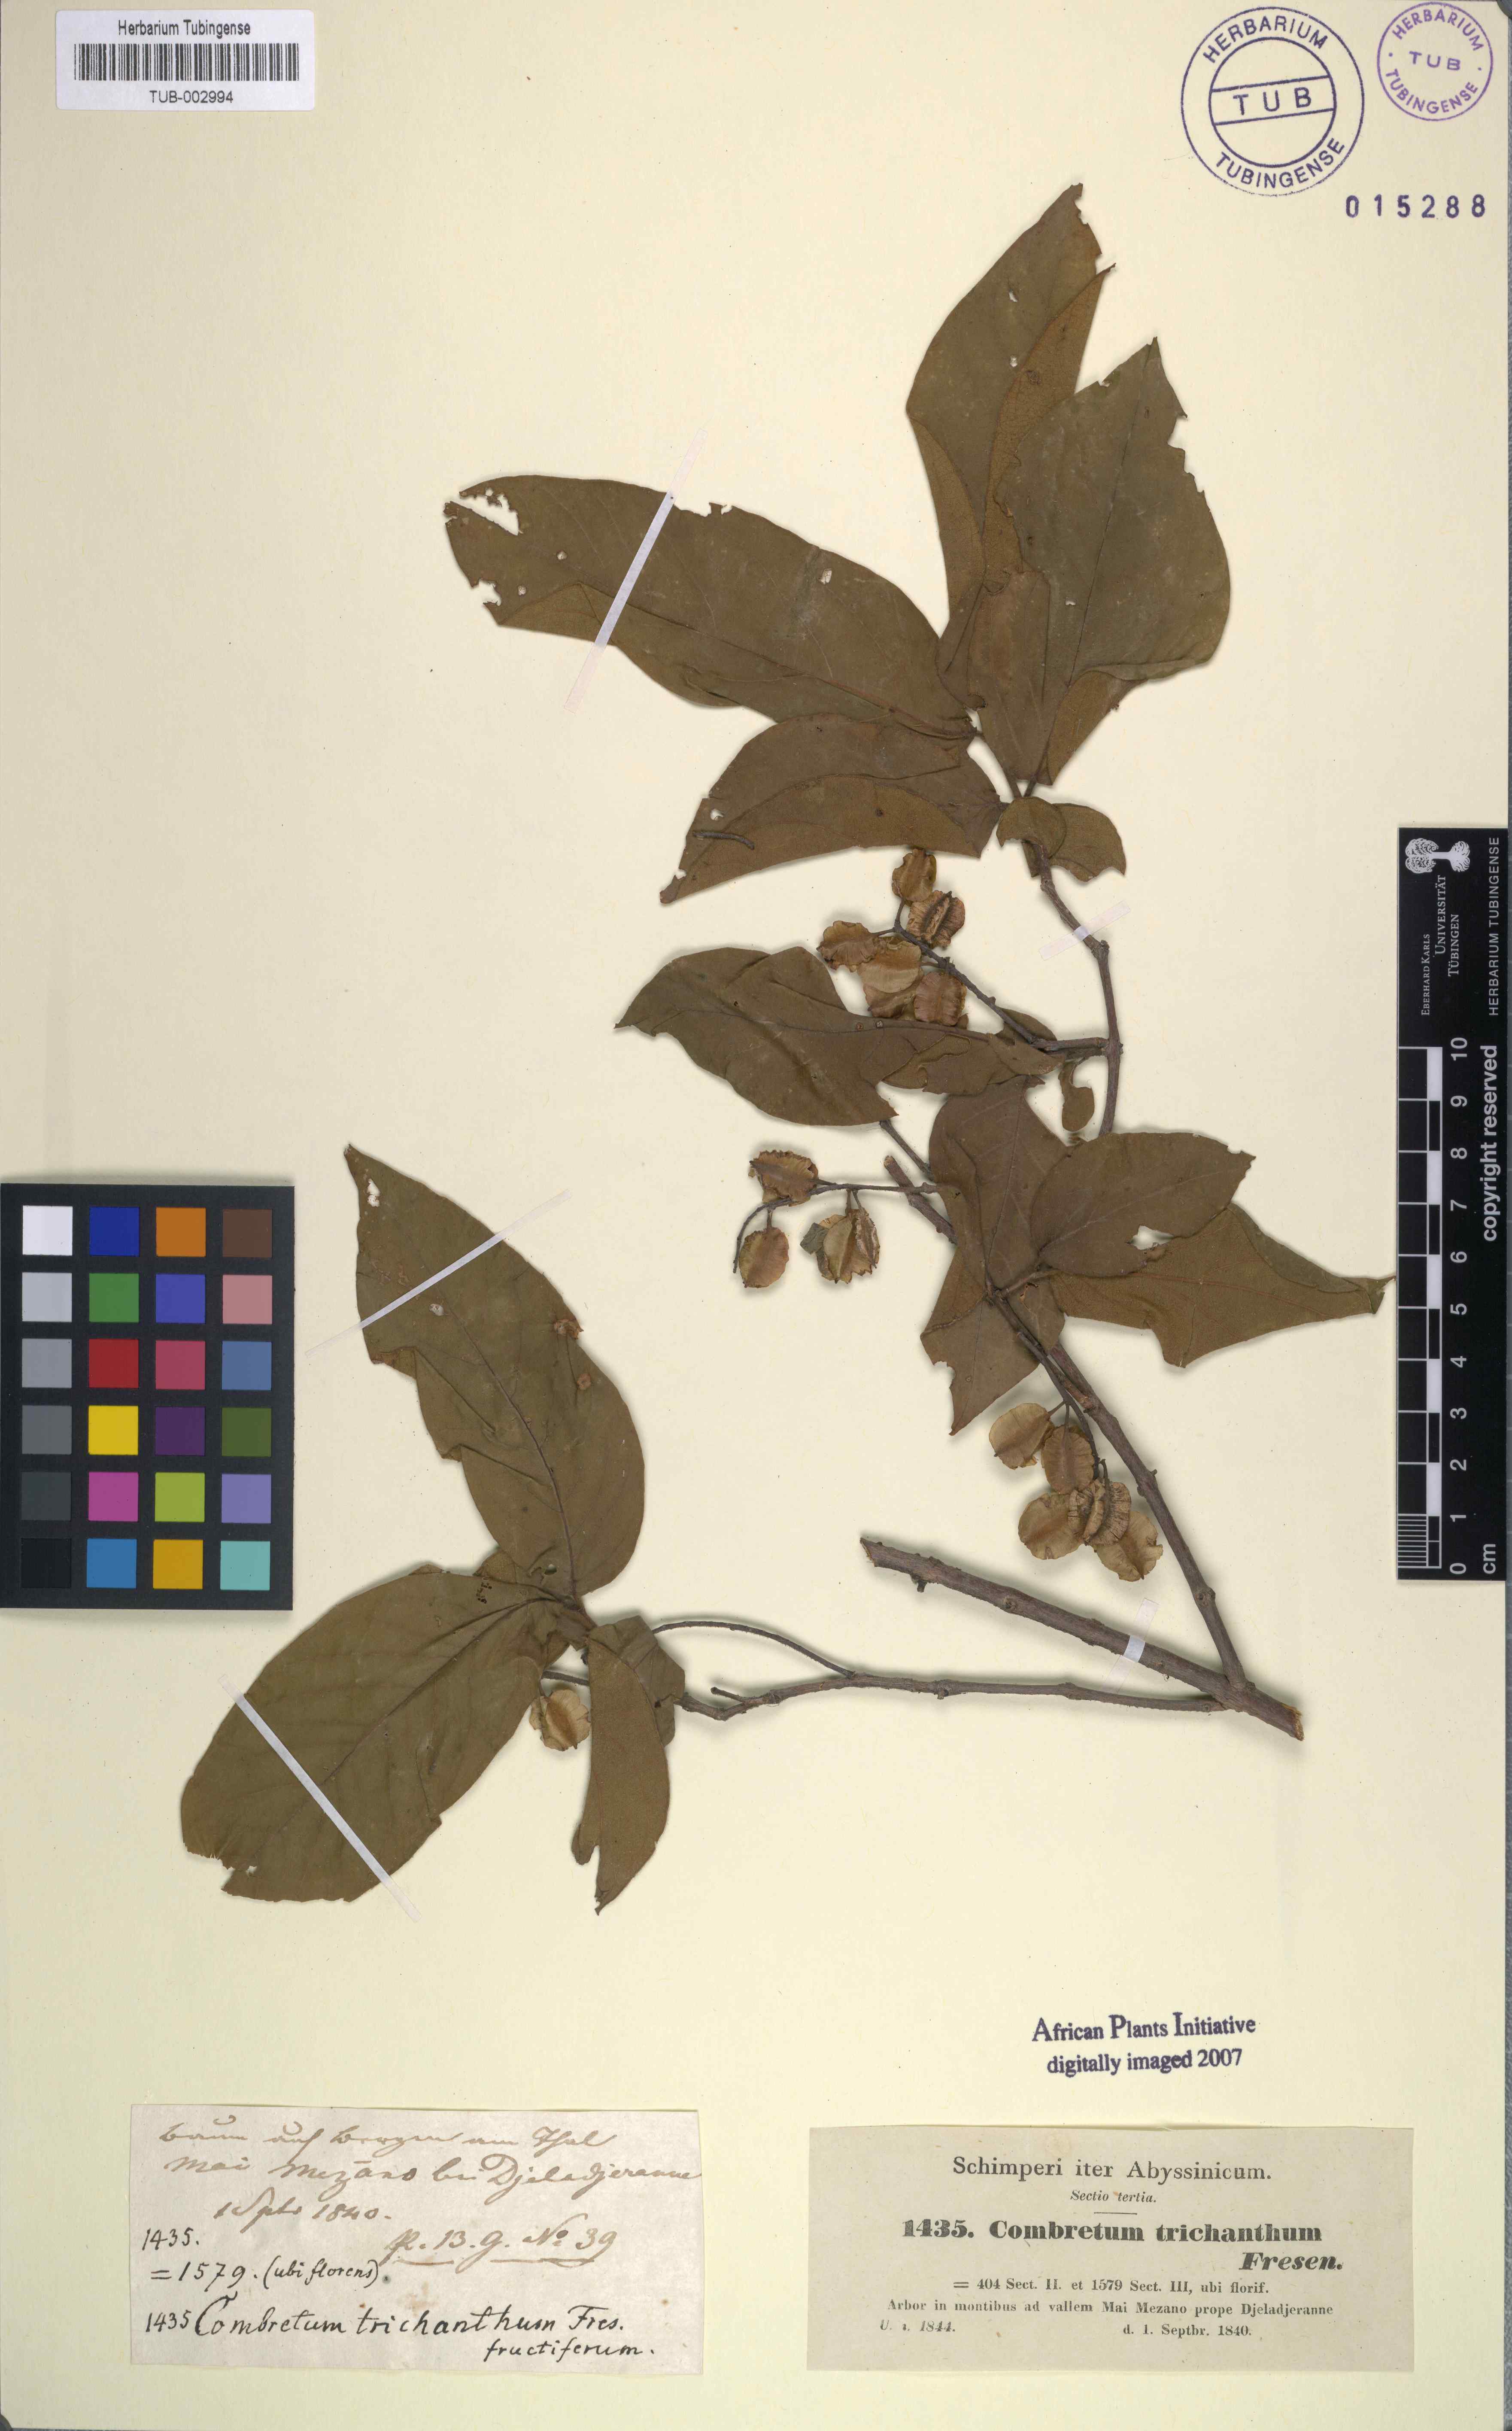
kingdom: Plantae
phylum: Tracheophyta
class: Magnoliopsida
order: Myrtales
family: Combretaceae
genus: Combretum
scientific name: Combretum molle
